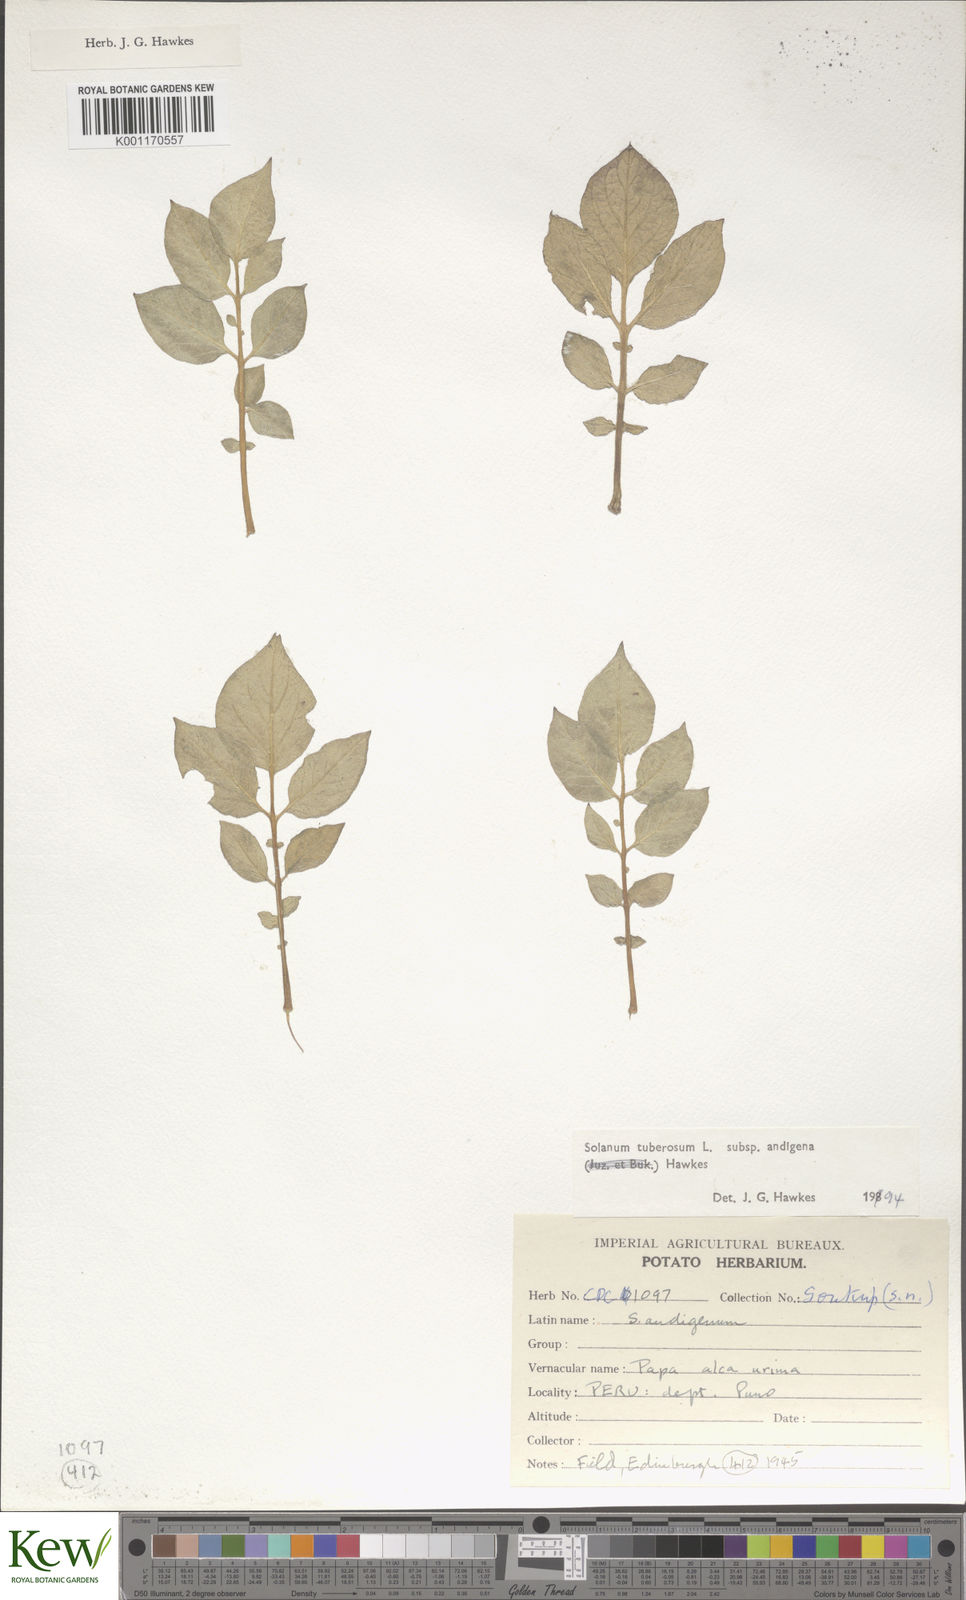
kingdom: Plantae
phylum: Tracheophyta
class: Magnoliopsida
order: Solanales
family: Solanaceae
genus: Solanum
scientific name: Solanum tuberosum
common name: Potato
